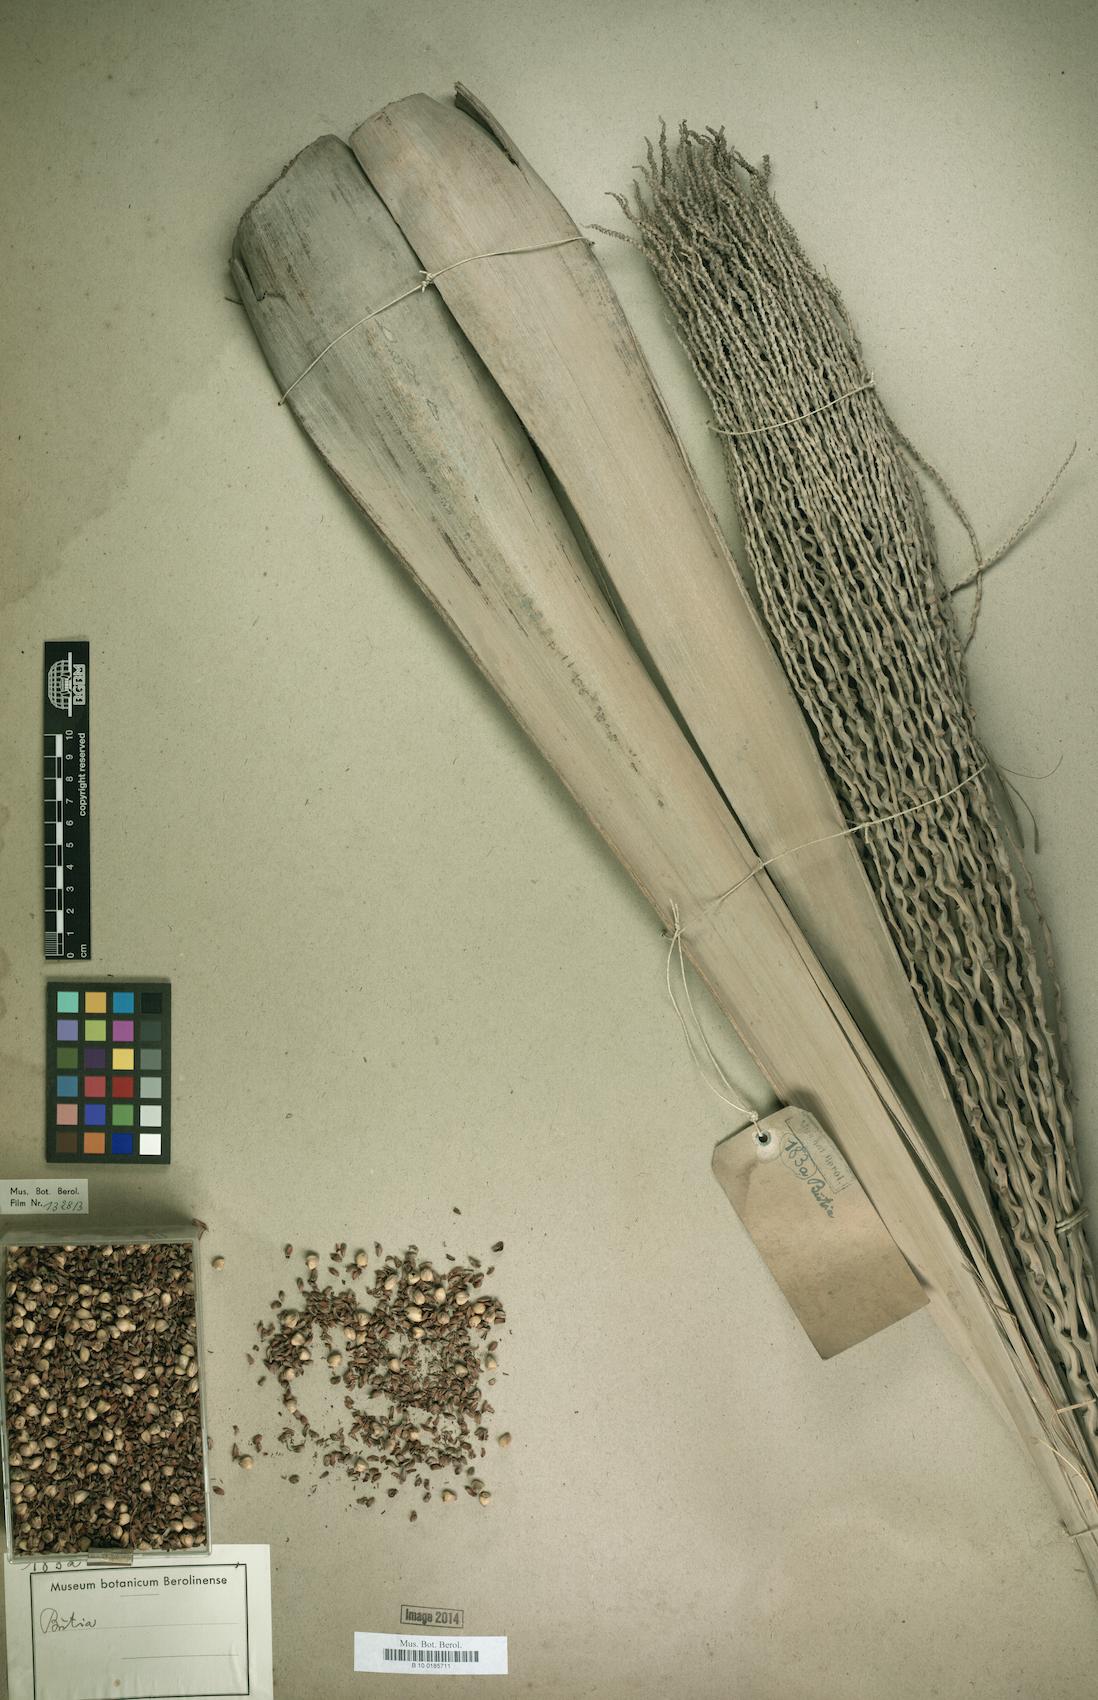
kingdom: Plantae
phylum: Tracheophyta
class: Liliopsida
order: Arecales
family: Arecaceae
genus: Butia
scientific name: Butia
